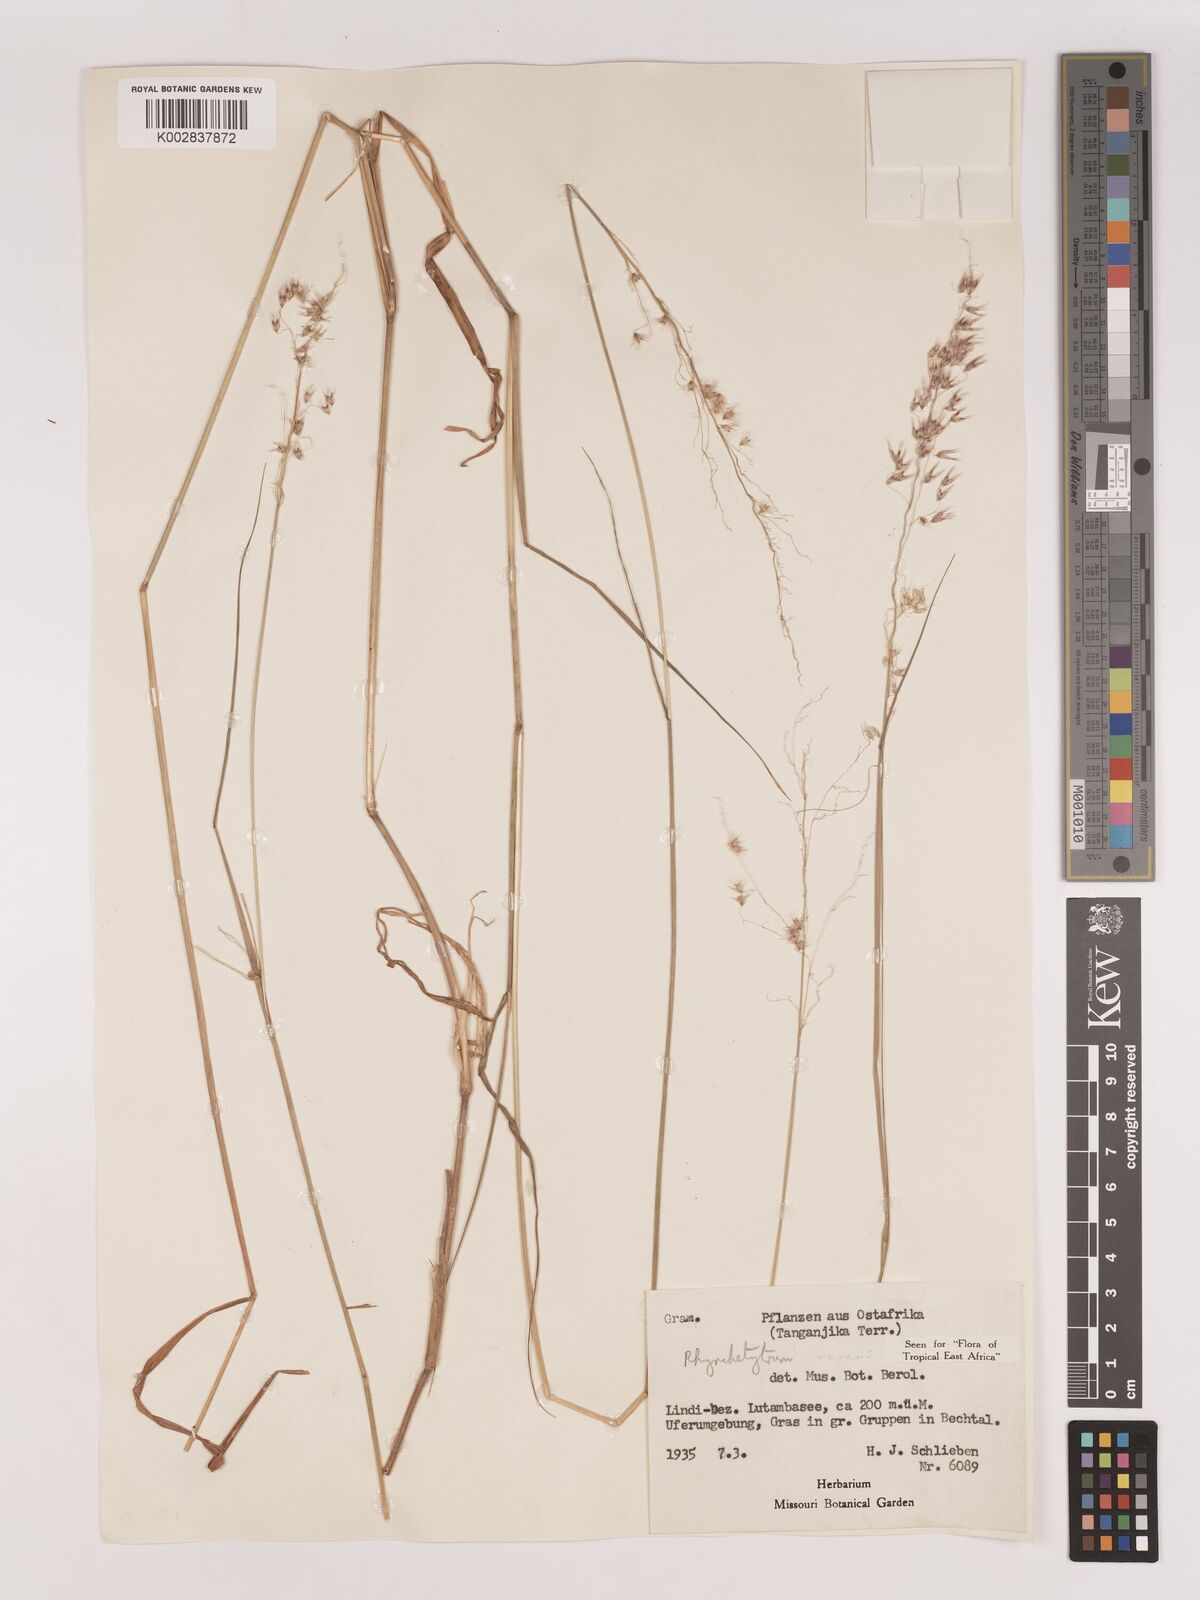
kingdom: Plantae
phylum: Tracheophyta
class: Liliopsida
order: Poales
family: Poaceae
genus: Melinis
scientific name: Melinis repens
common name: Rose natal grass
